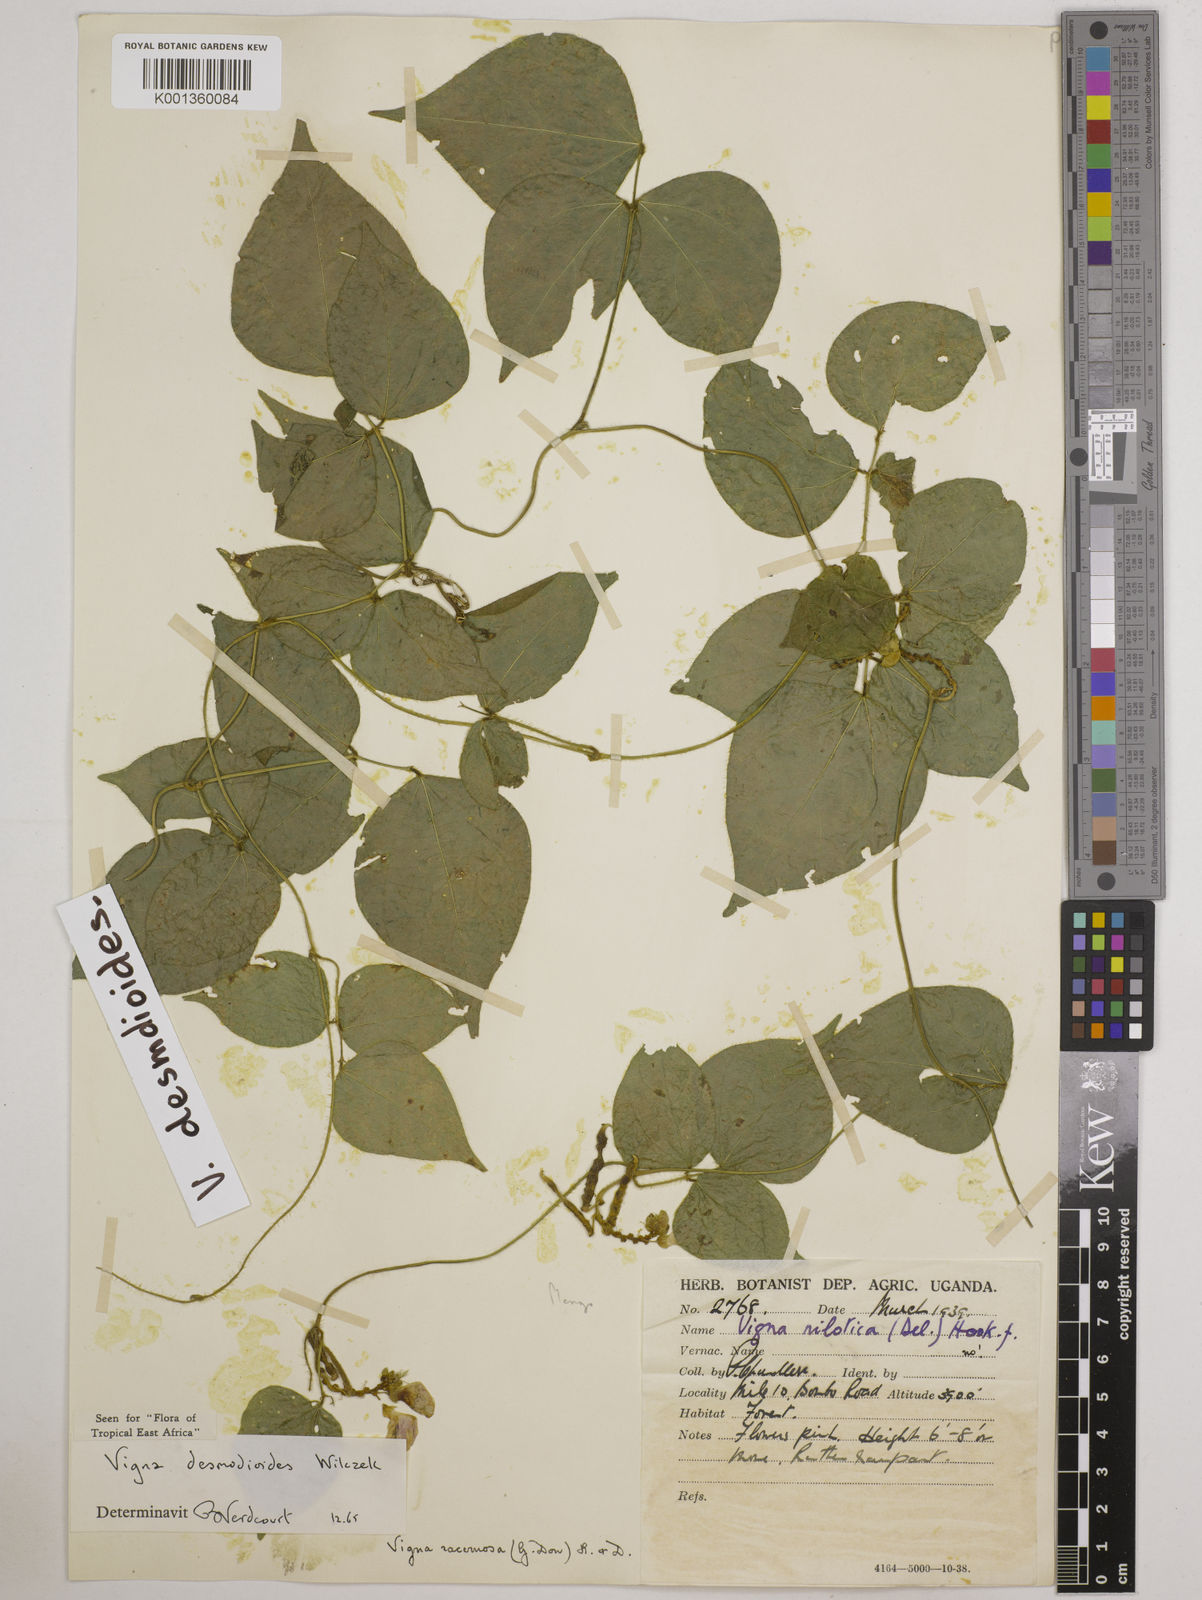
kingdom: Plantae
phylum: Tracheophyta
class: Magnoliopsida
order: Fabales
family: Fabaceae
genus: Vigna
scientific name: Vigna gracilis
